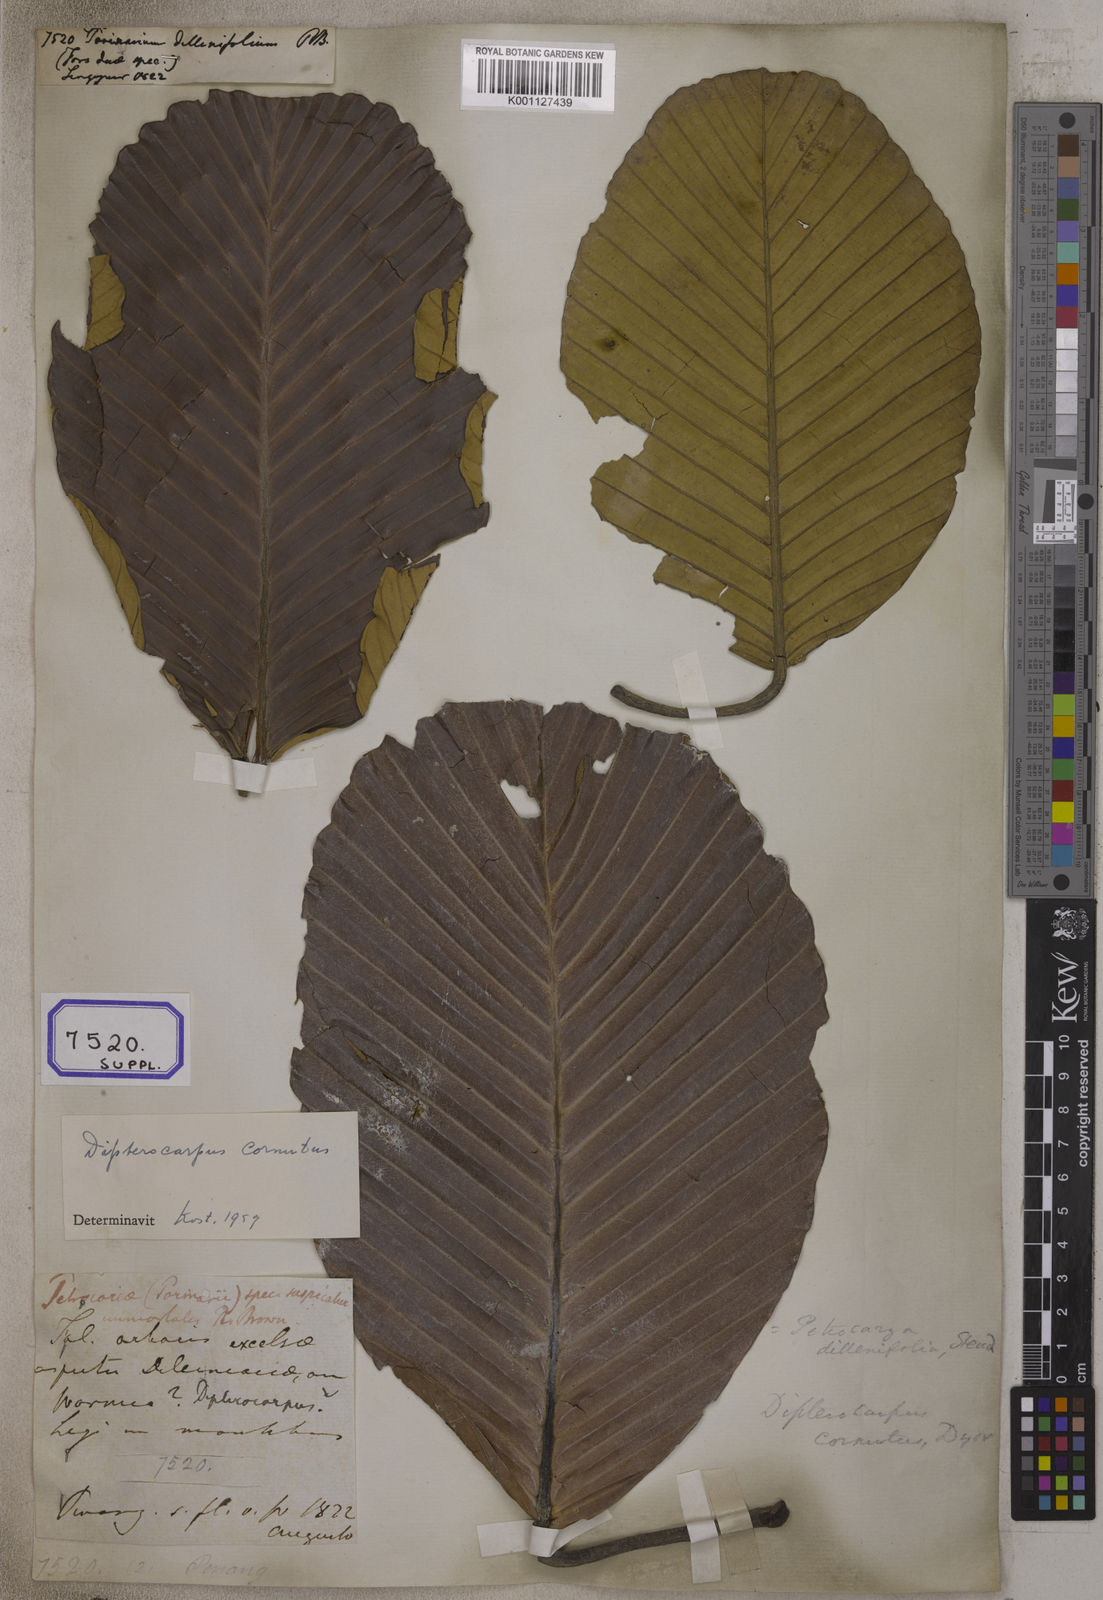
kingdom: Plantae
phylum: Tracheophyta
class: Liliopsida
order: Poales
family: Poaceae
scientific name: Poaceae
